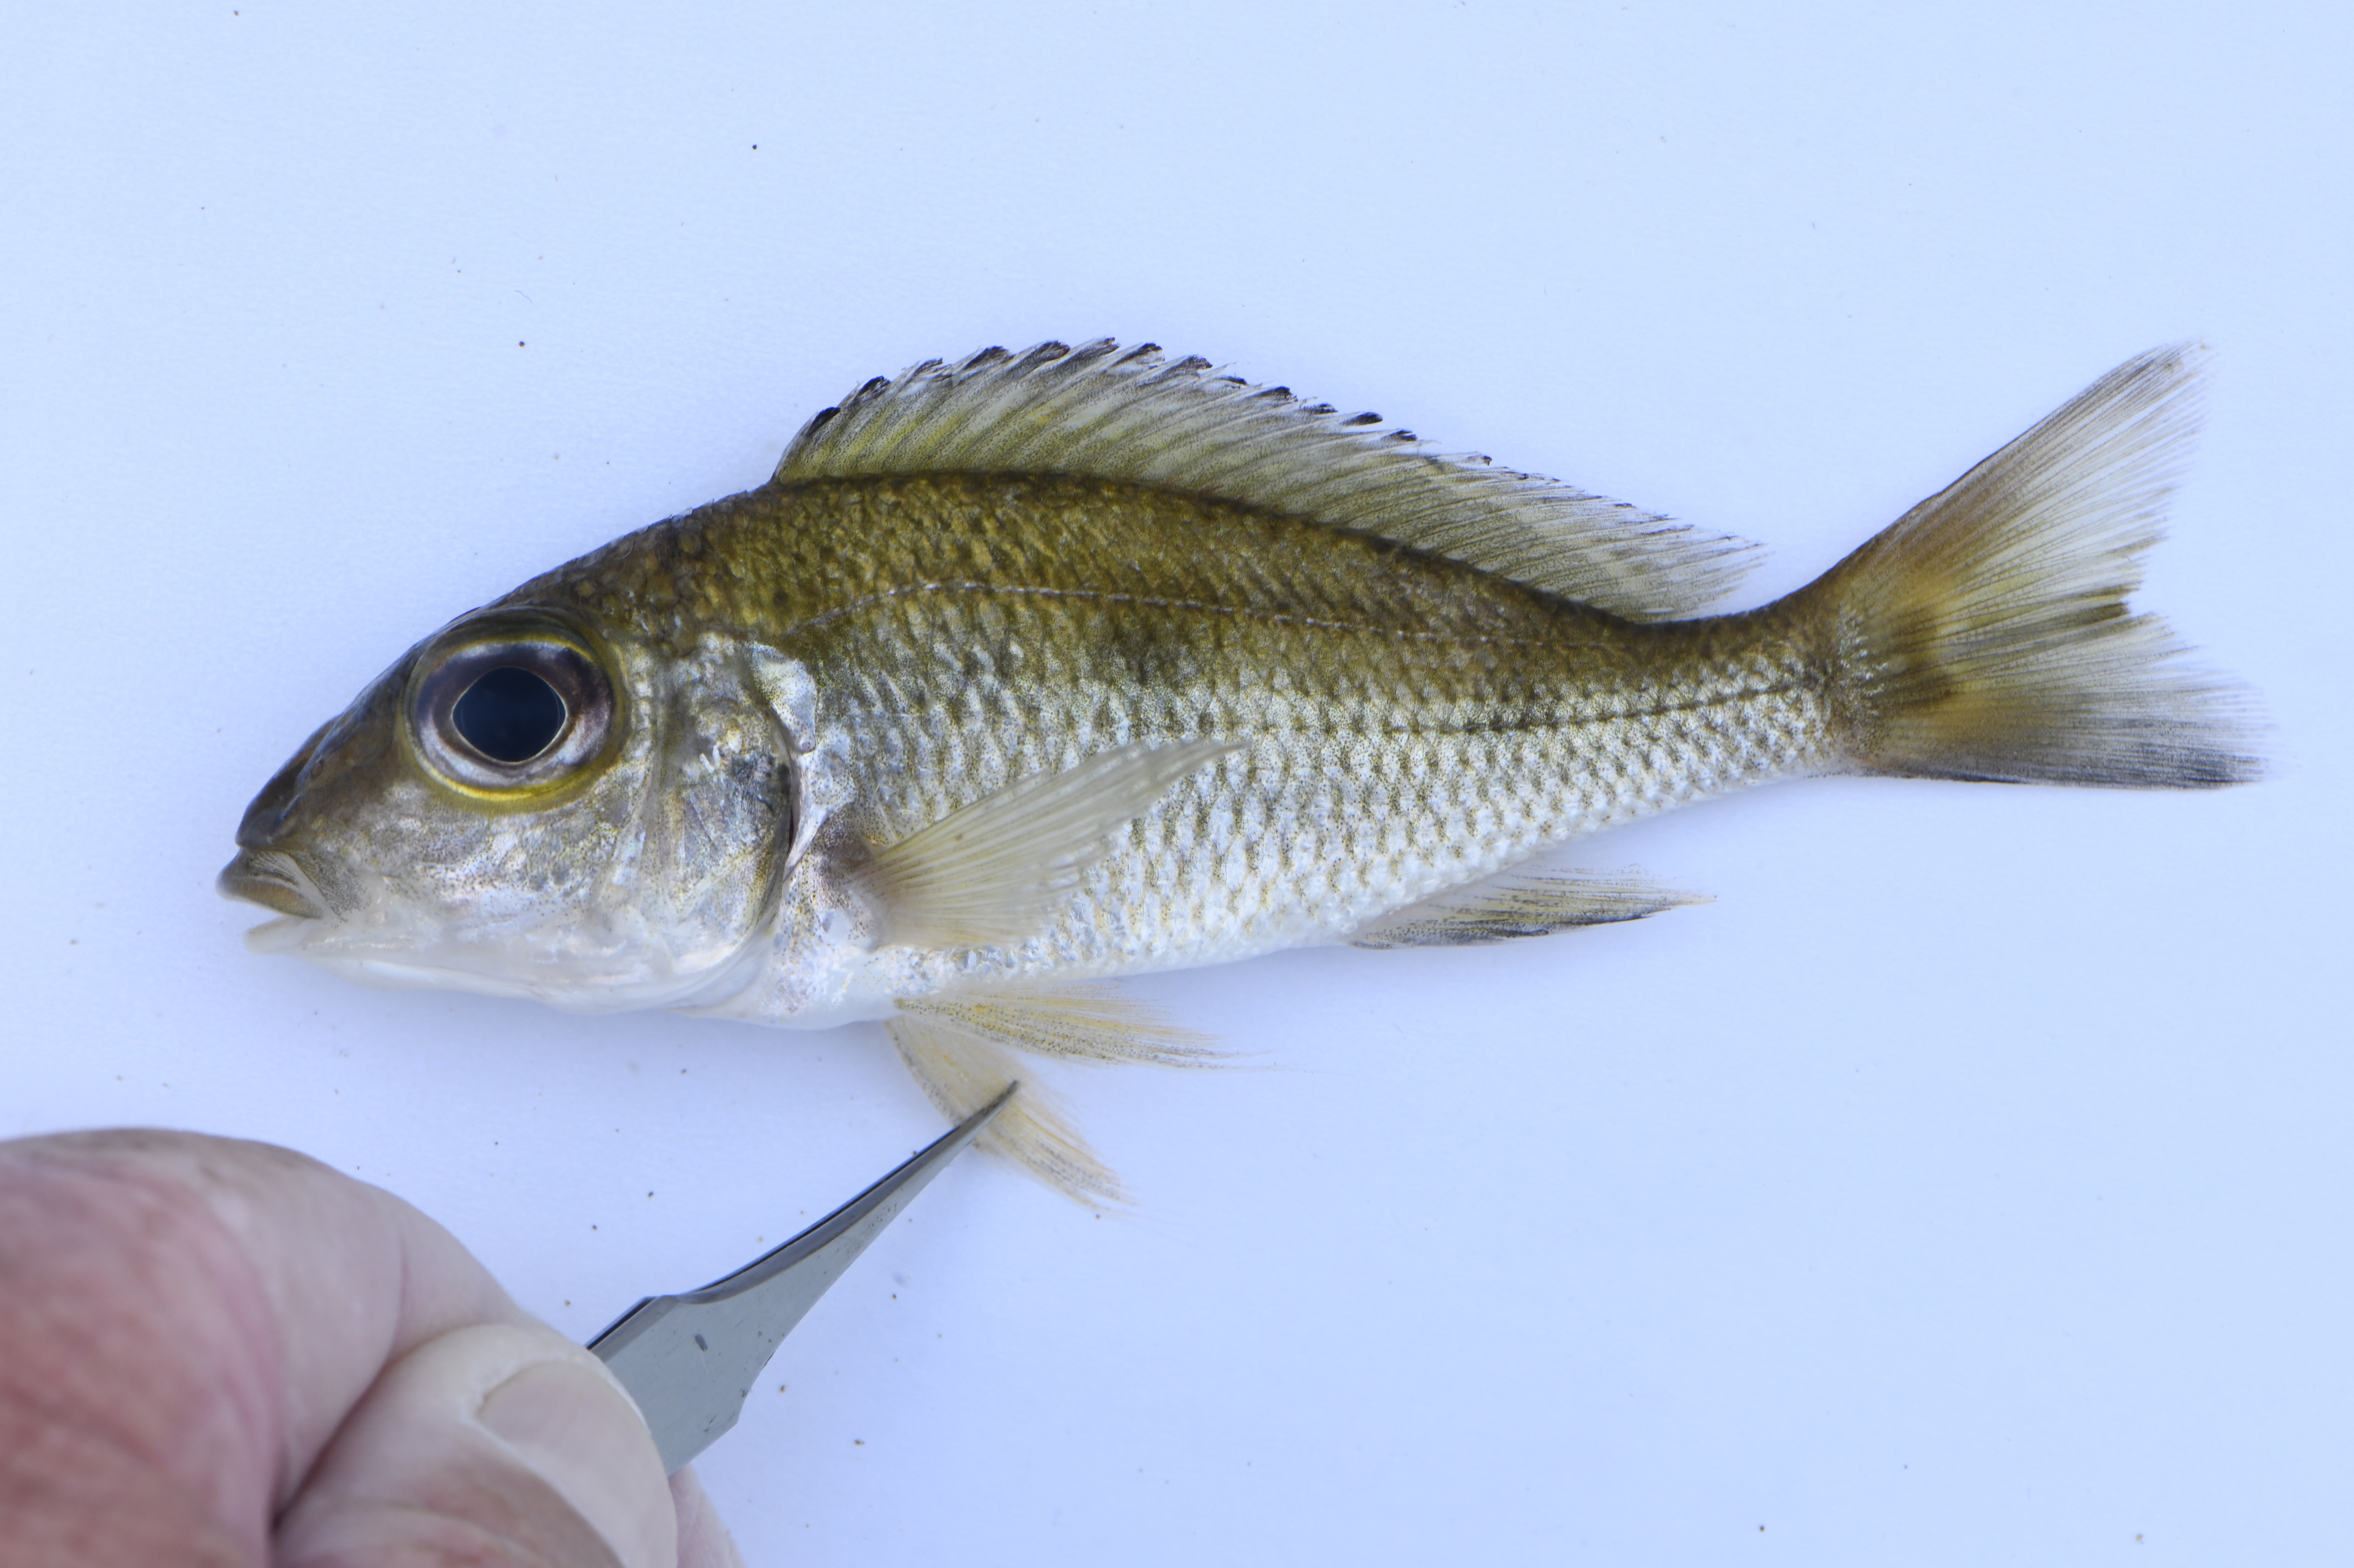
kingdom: Animalia
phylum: Chordata
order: Perciformes
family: Cichlidae
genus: Callochromis
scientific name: Callochromis macrops
